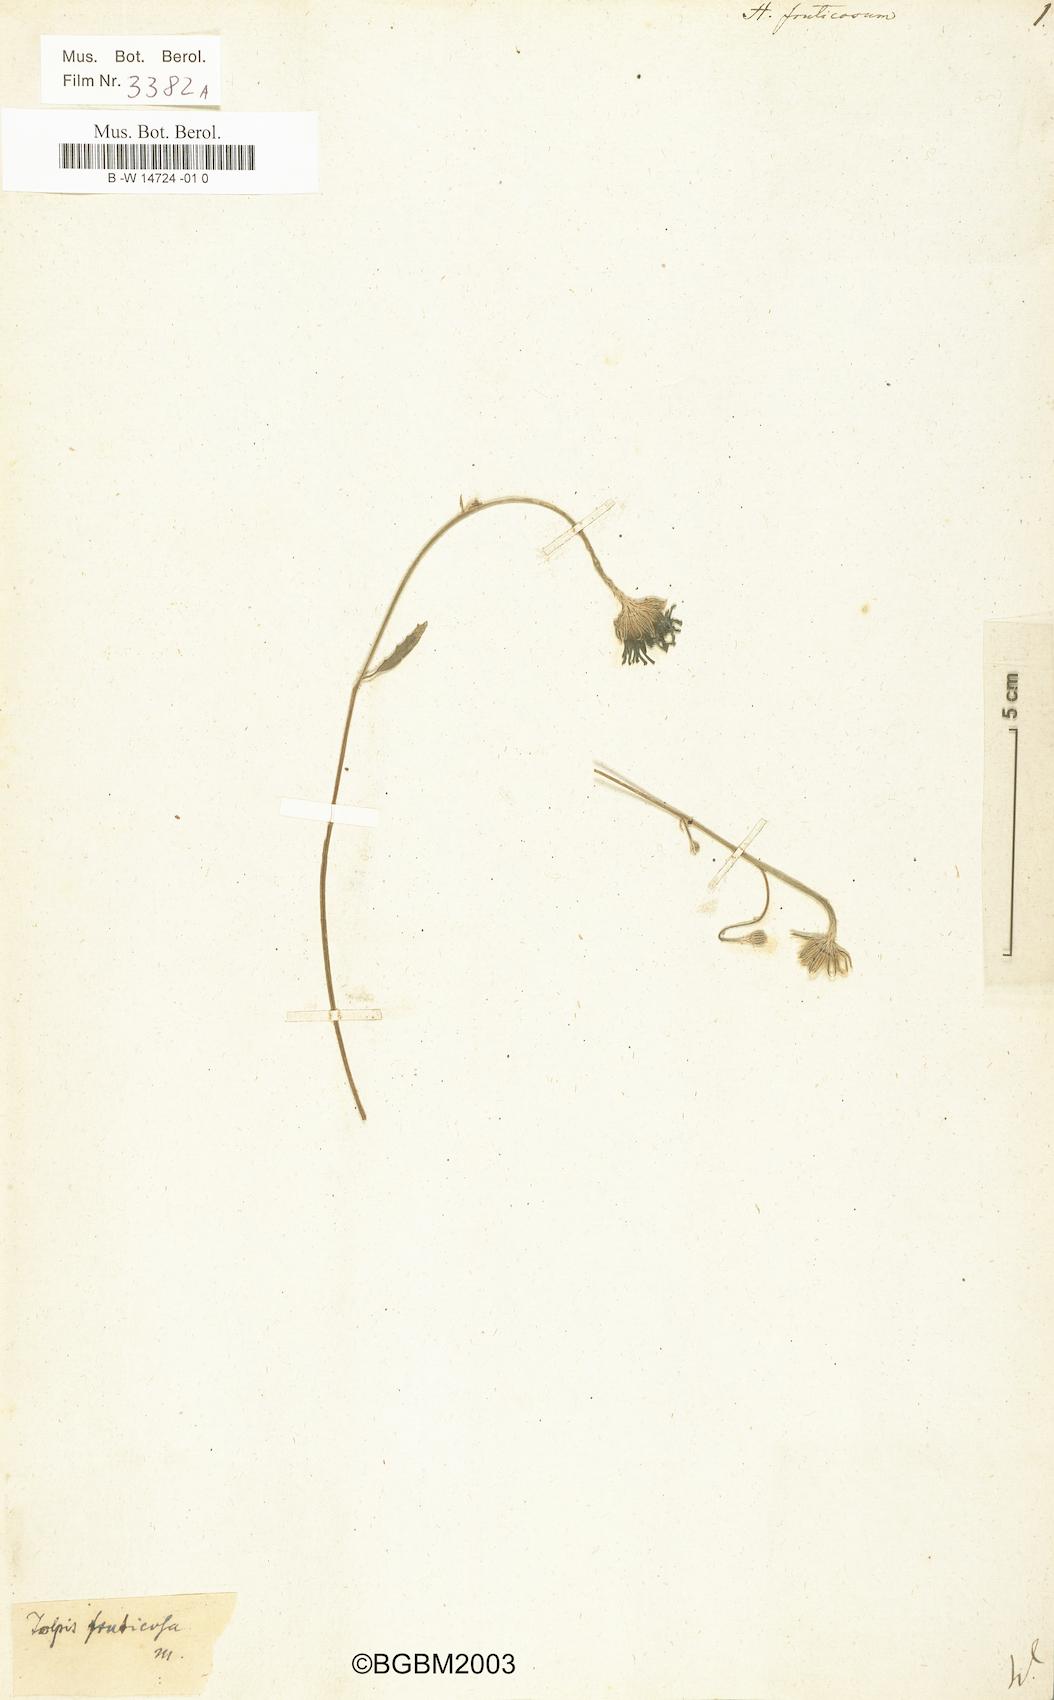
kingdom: Plantae
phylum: Tracheophyta
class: Magnoliopsida
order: Asterales
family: Asteraceae
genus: Tolpis
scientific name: Tolpis succulenta
